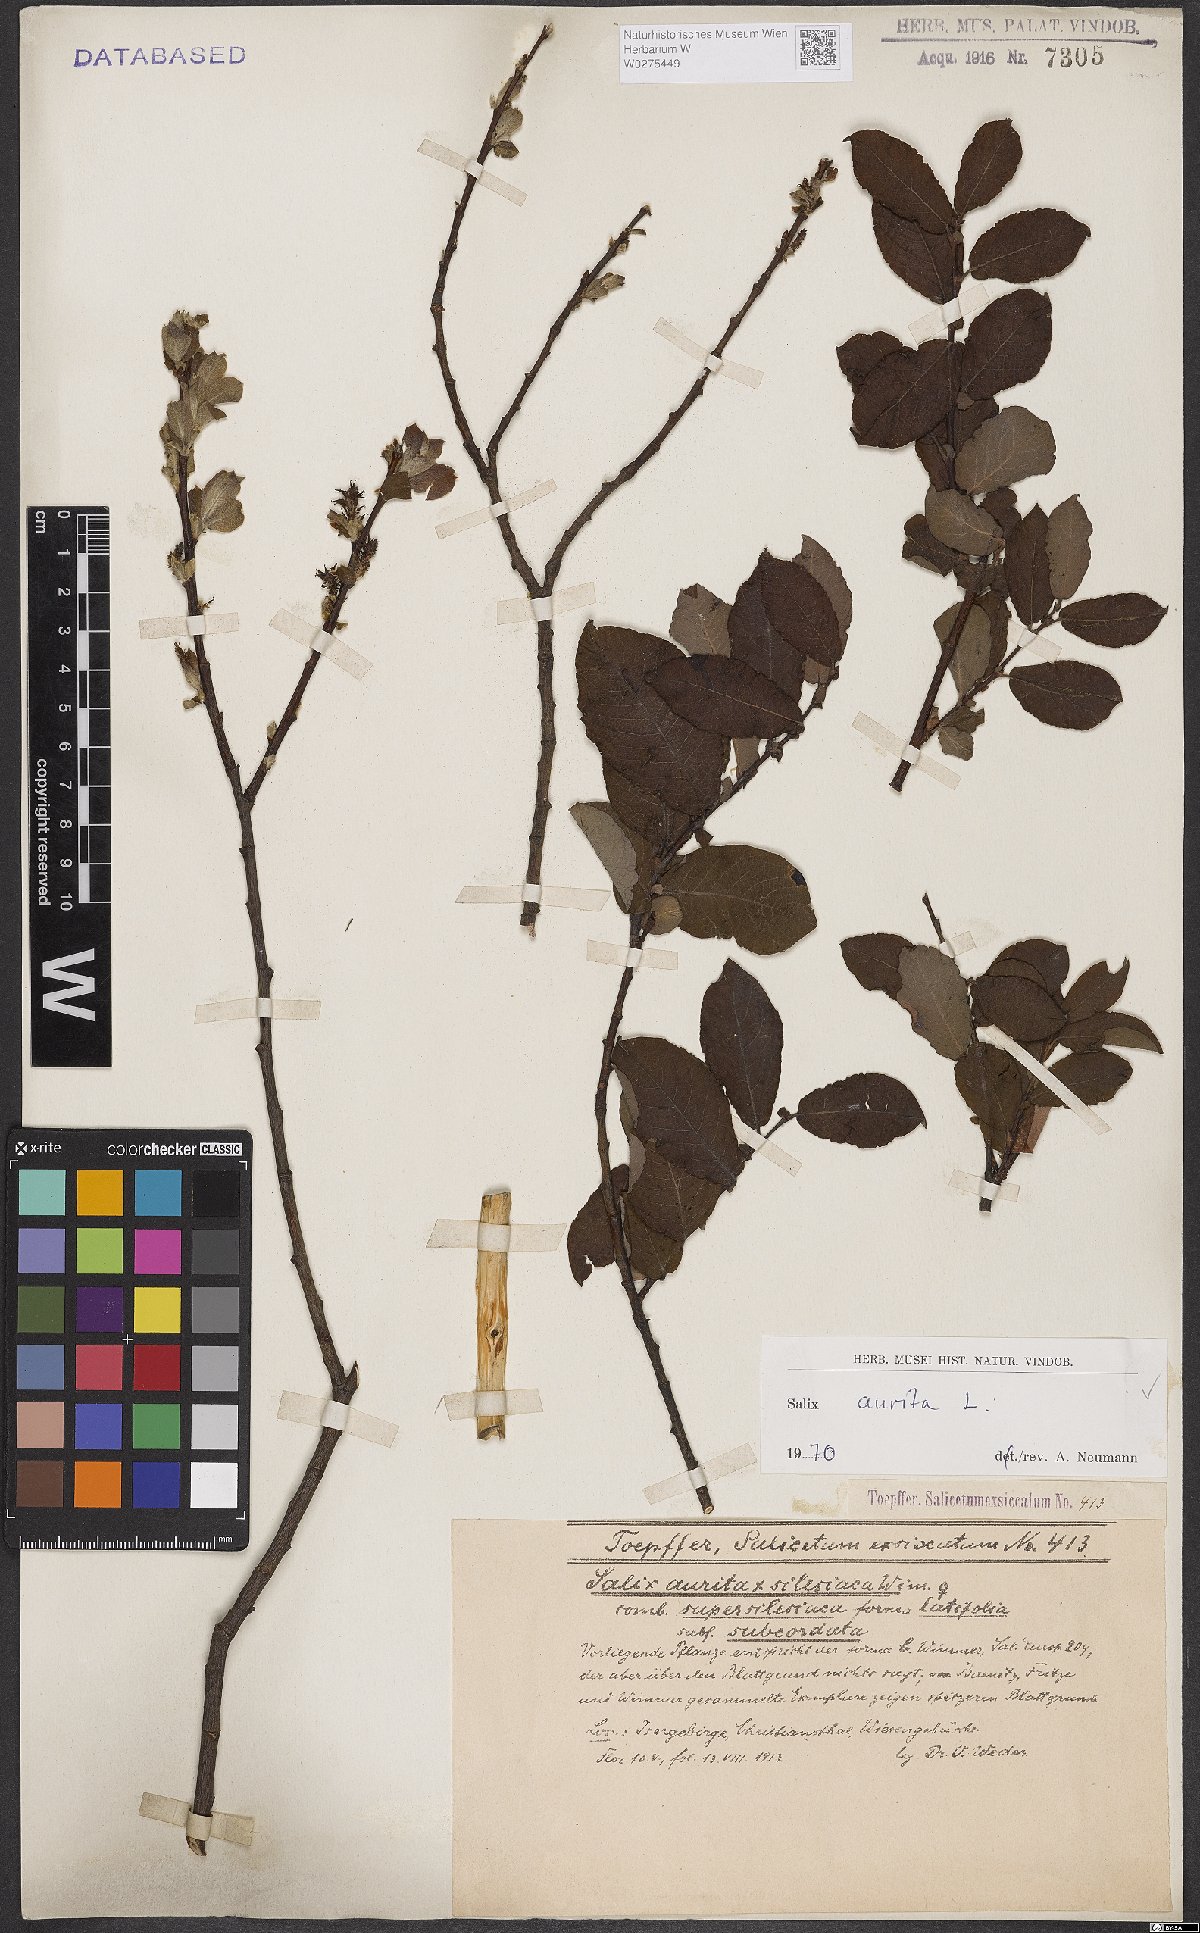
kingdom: Plantae
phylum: Tracheophyta
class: Magnoliopsida
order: Malpighiales
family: Salicaceae
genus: Salix
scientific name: Salix aurita
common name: Eared willow
